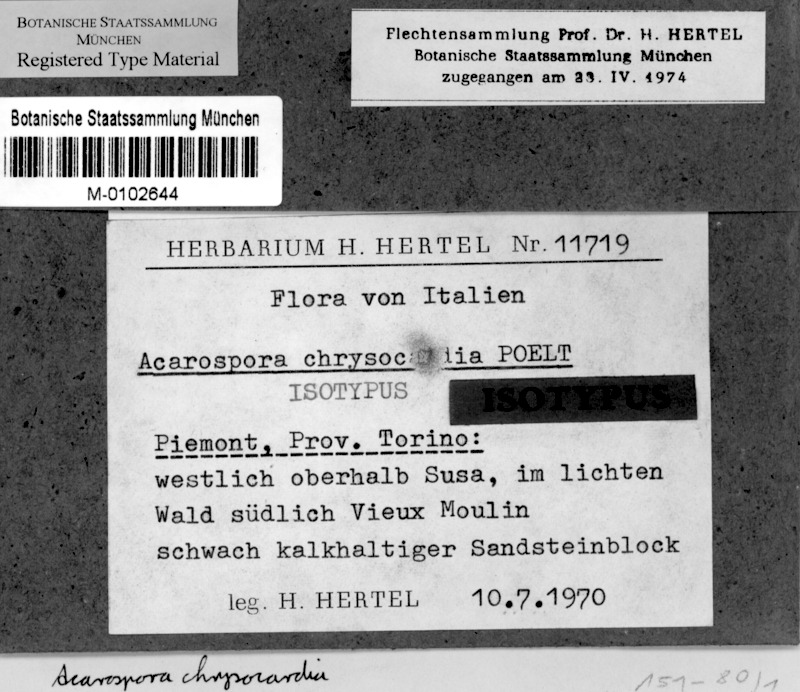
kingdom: Fungi
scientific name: Fungi
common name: Fungi
